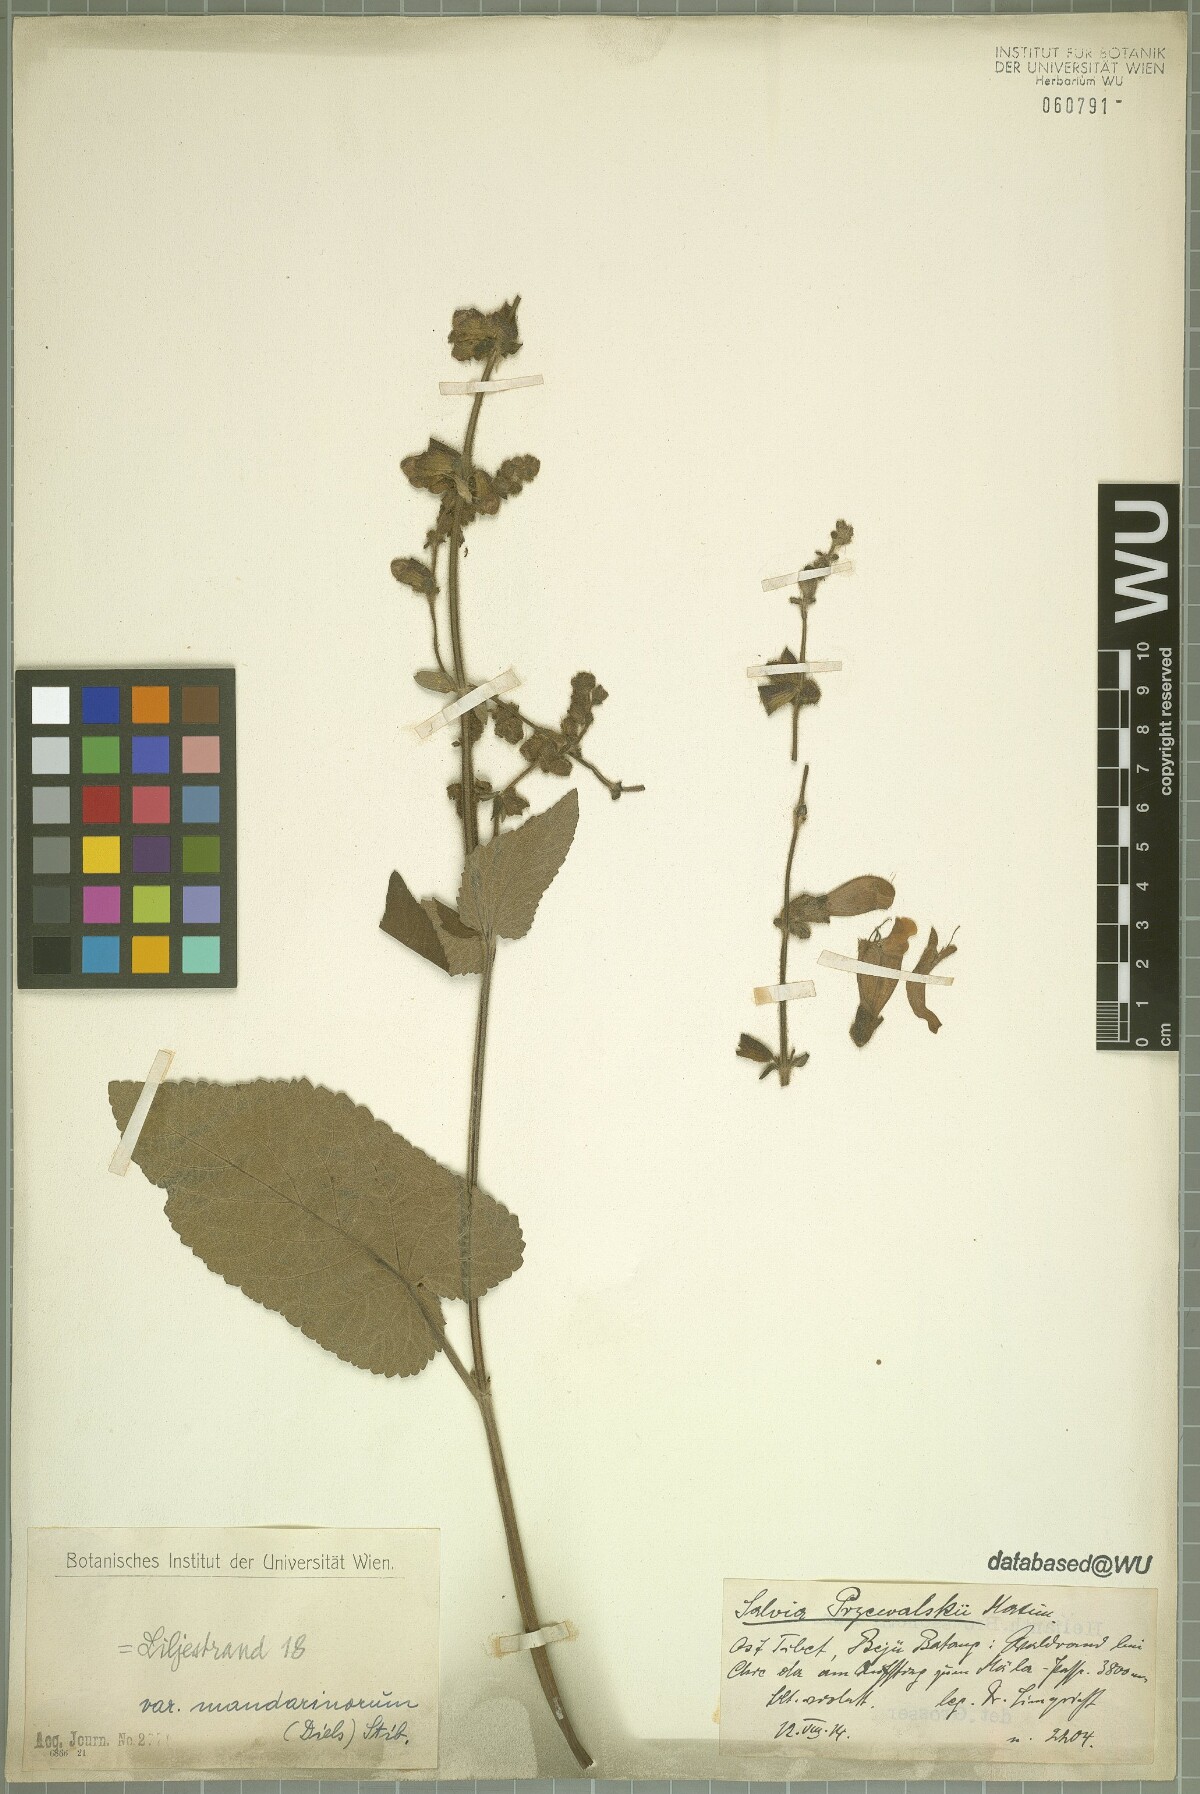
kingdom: Plantae
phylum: Tracheophyta
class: Magnoliopsida
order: Lamiales
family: Lamiaceae
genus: Salvia
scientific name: Salvia przewalskii
